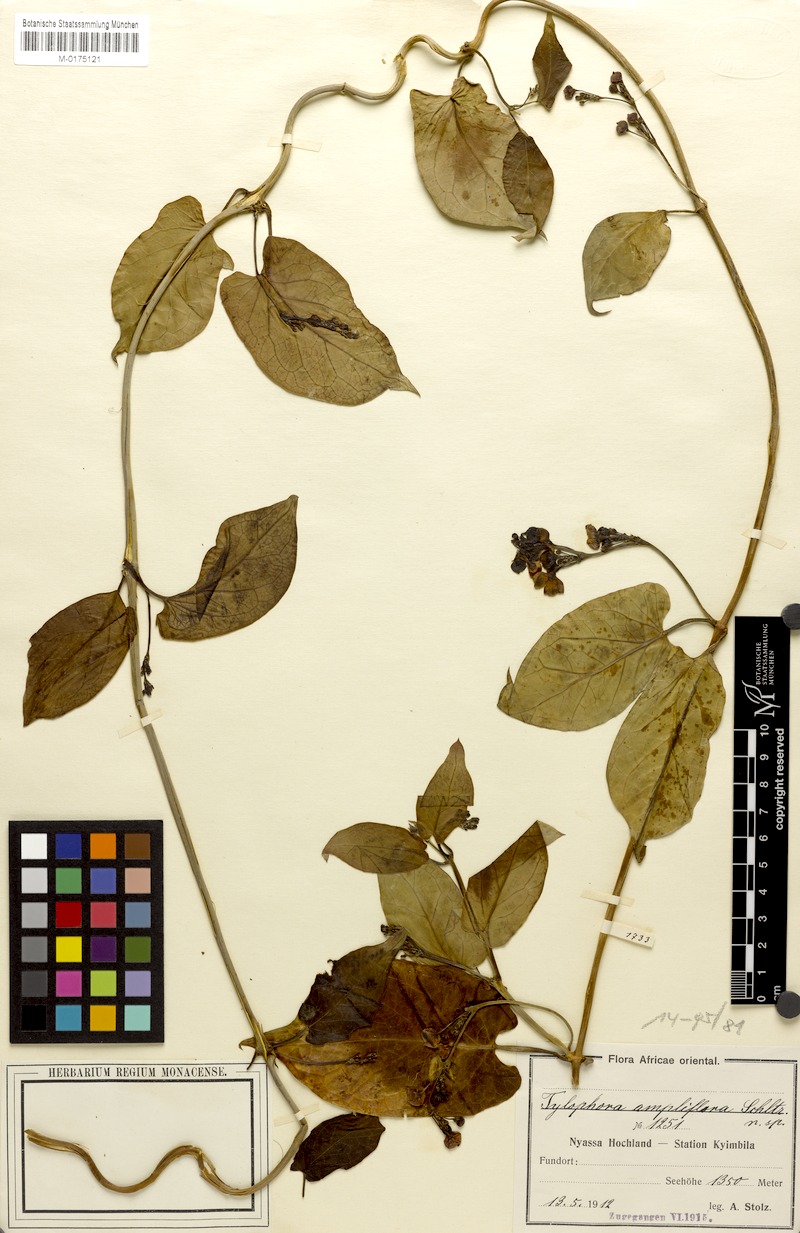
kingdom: Plantae
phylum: Tracheophyta
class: Magnoliopsida
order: Gentianales
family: Apocynaceae
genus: Vincetoxicum
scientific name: Vincetoxicum
